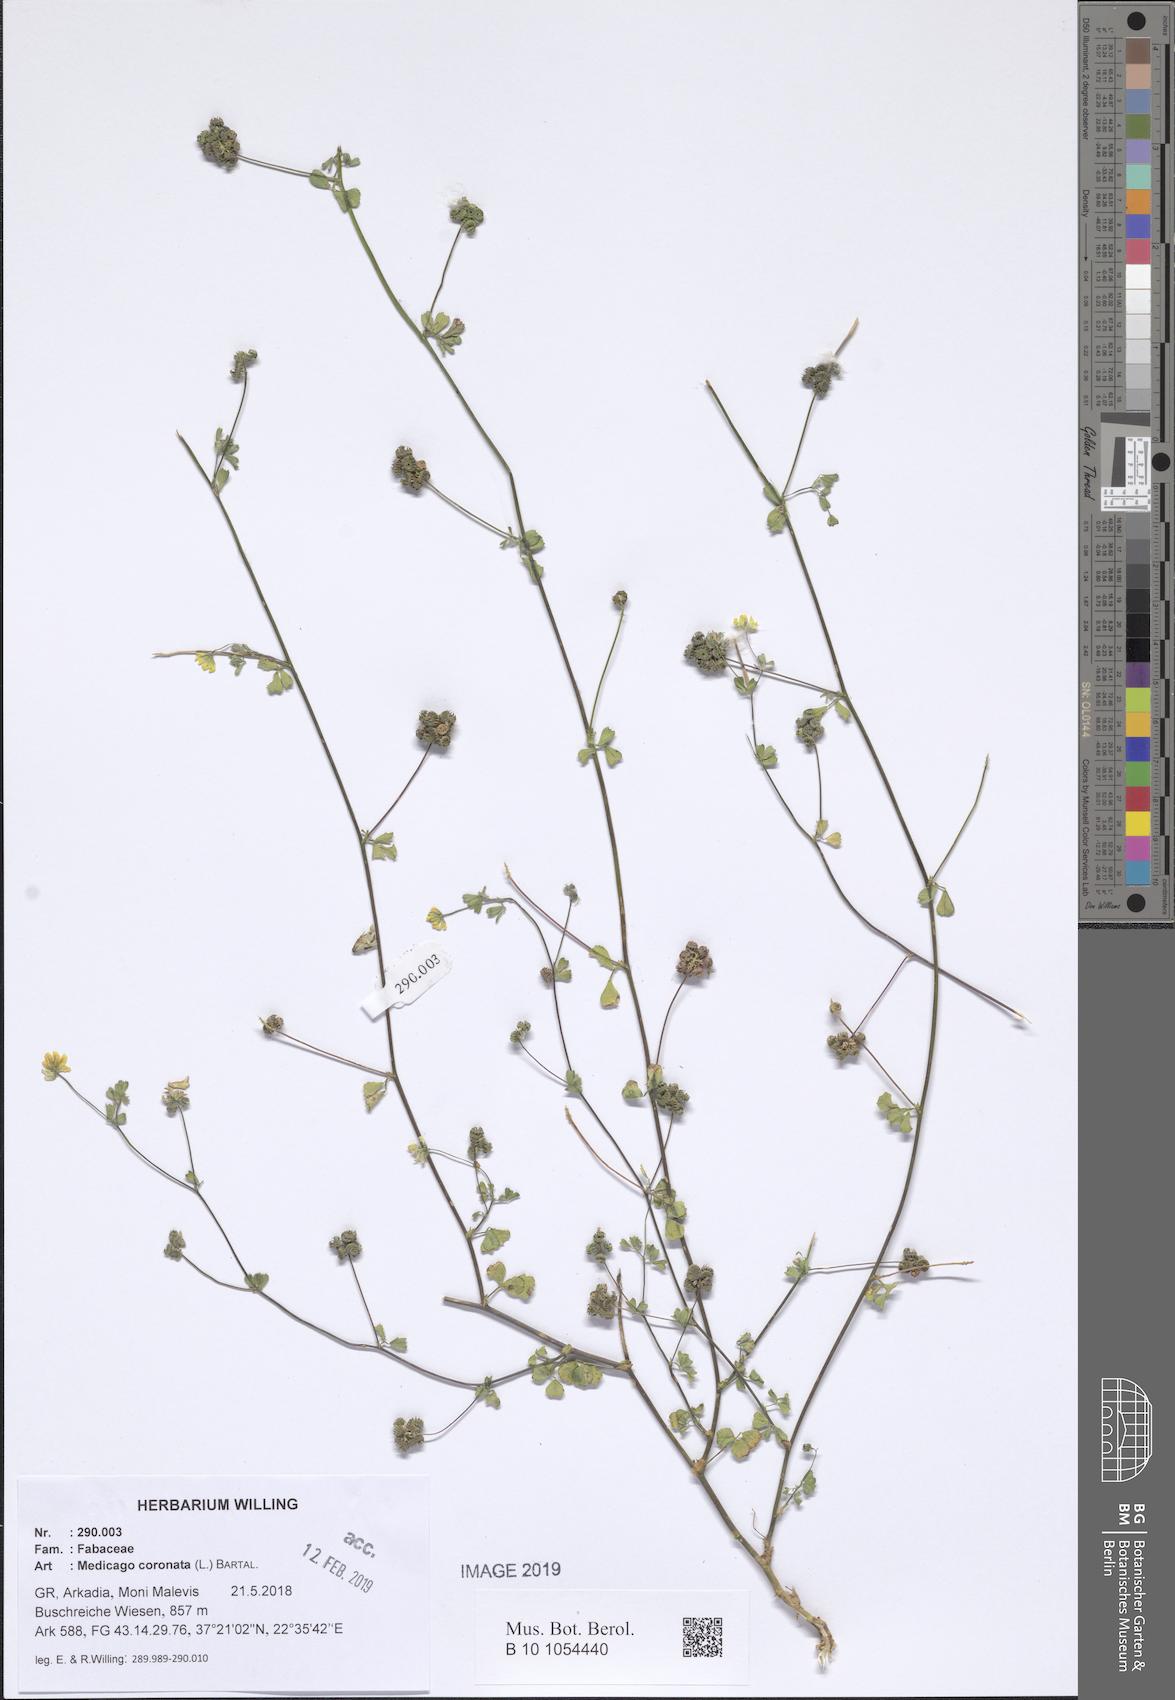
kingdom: Plantae
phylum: Tracheophyta
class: Magnoliopsida
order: Fabales
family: Fabaceae
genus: Medicago
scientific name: Medicago coronata
